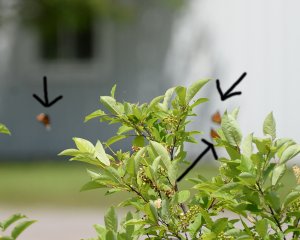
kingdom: Animalia
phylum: Arthropoda
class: Insecta
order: Lepidoptera
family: Nymphalidae
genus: Limenitis
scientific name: Limenitis archippus
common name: Viceroy
